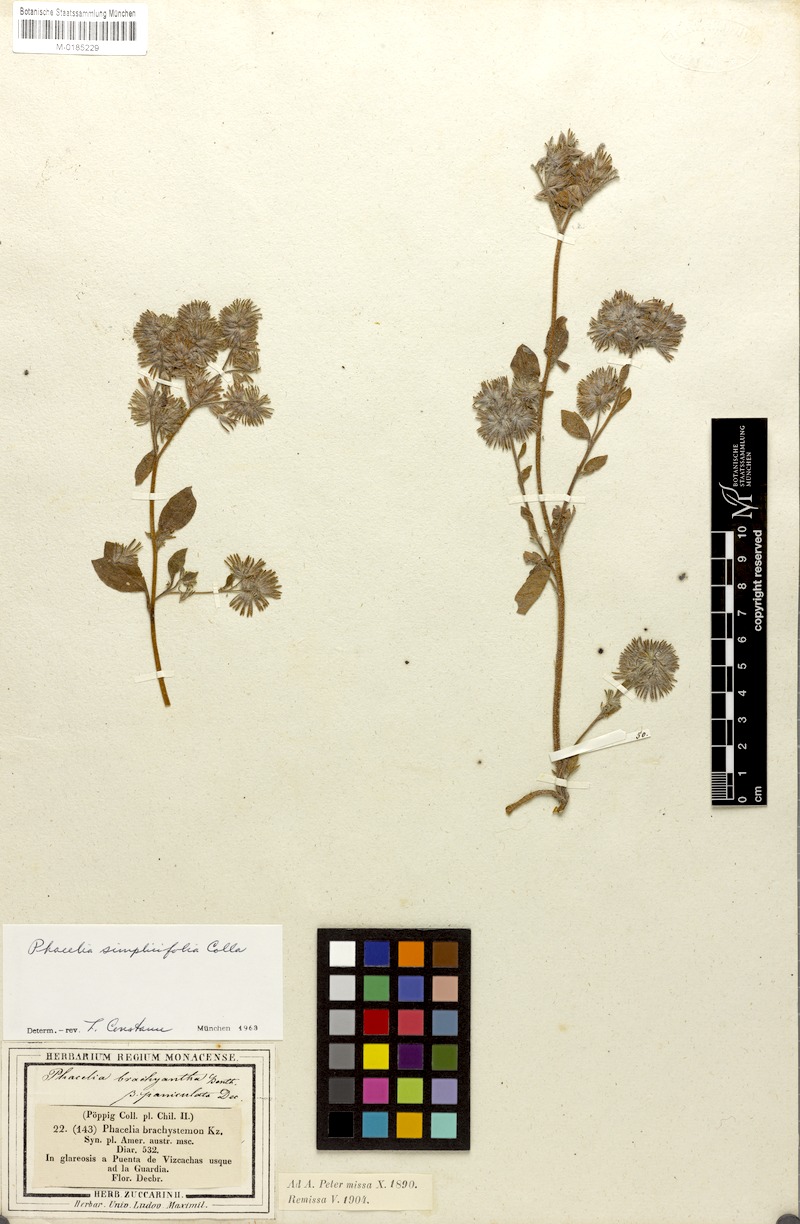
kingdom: Plantae
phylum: Tracheophyta
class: Magnoliopsida
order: Boraginales
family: Hydrophyllaceae
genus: Phacelia
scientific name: Phacelia brachyantha
